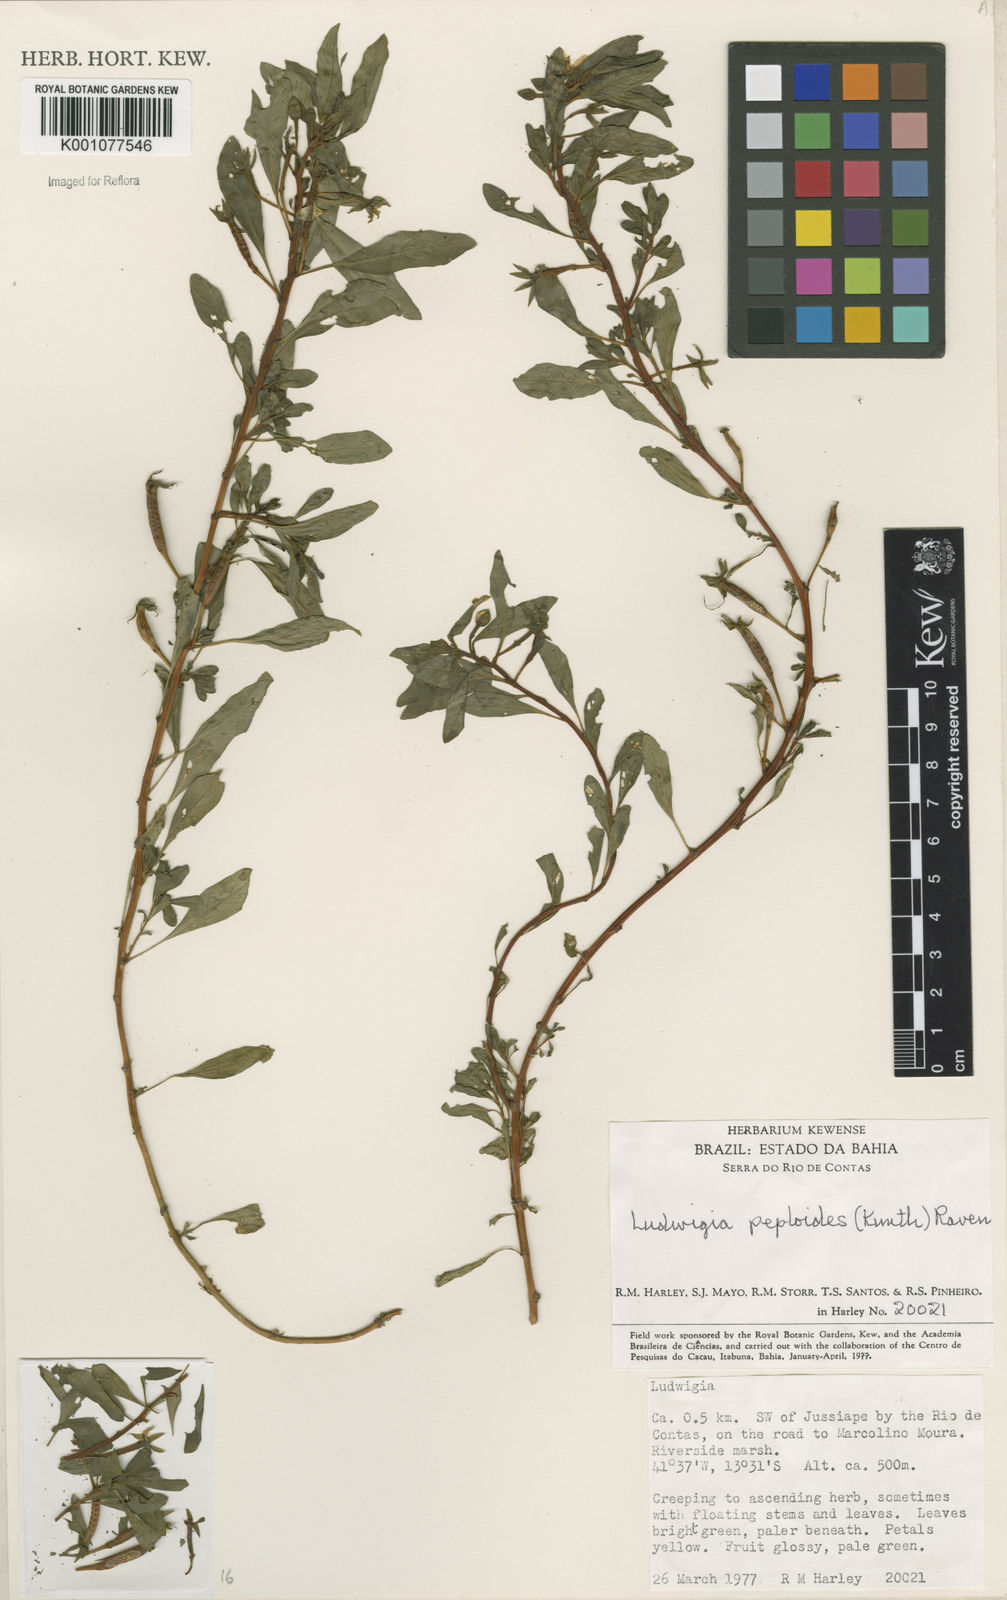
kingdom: Plantae
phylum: Tracheophyta
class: Magnoliopsida
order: Myrtales
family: Onagraceae
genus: Ludwigia
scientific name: Ludwigia peploides
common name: Floating primrose-willow
